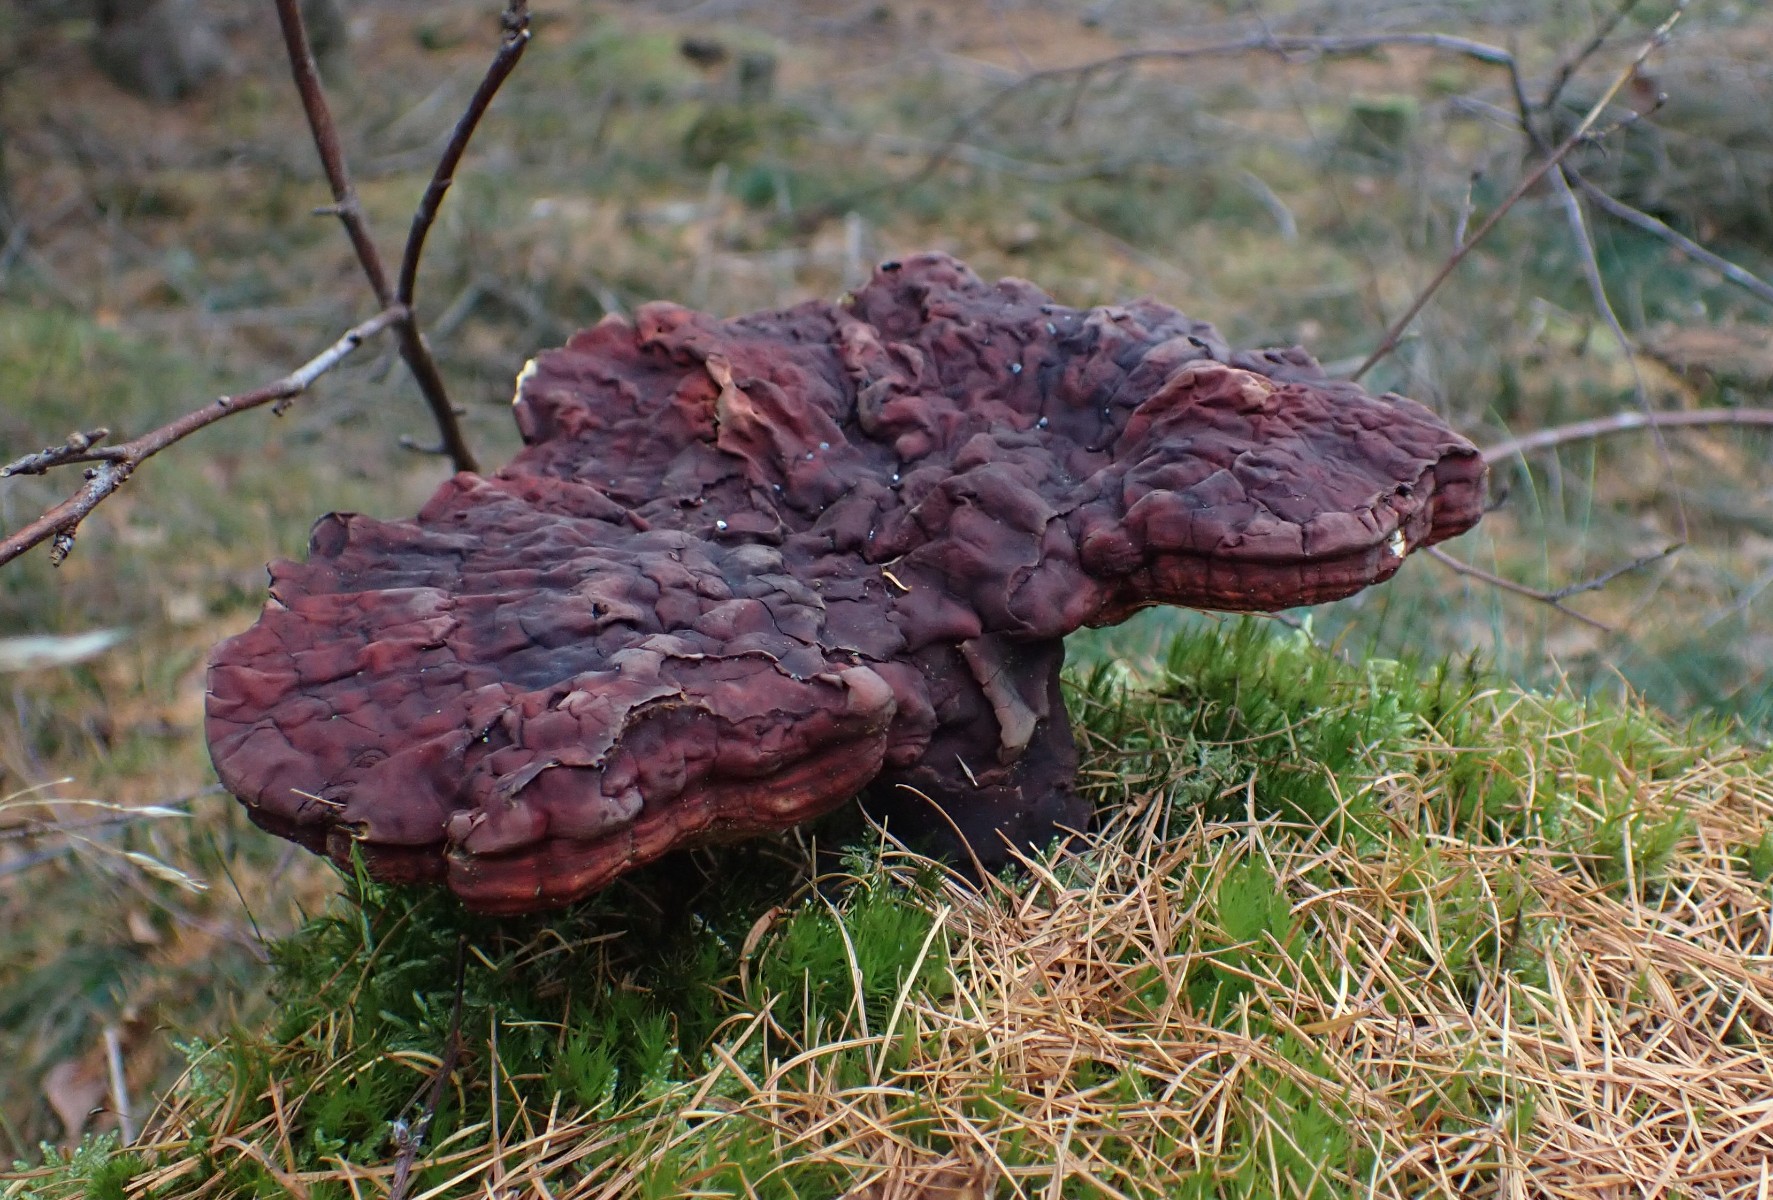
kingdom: Fungi
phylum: Basidiomycota
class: Agaricomycetes
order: Polyporales
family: Polyporaceae
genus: Ganoderma
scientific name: Ganoderma lucidum
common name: skinnende lakporesvamp
